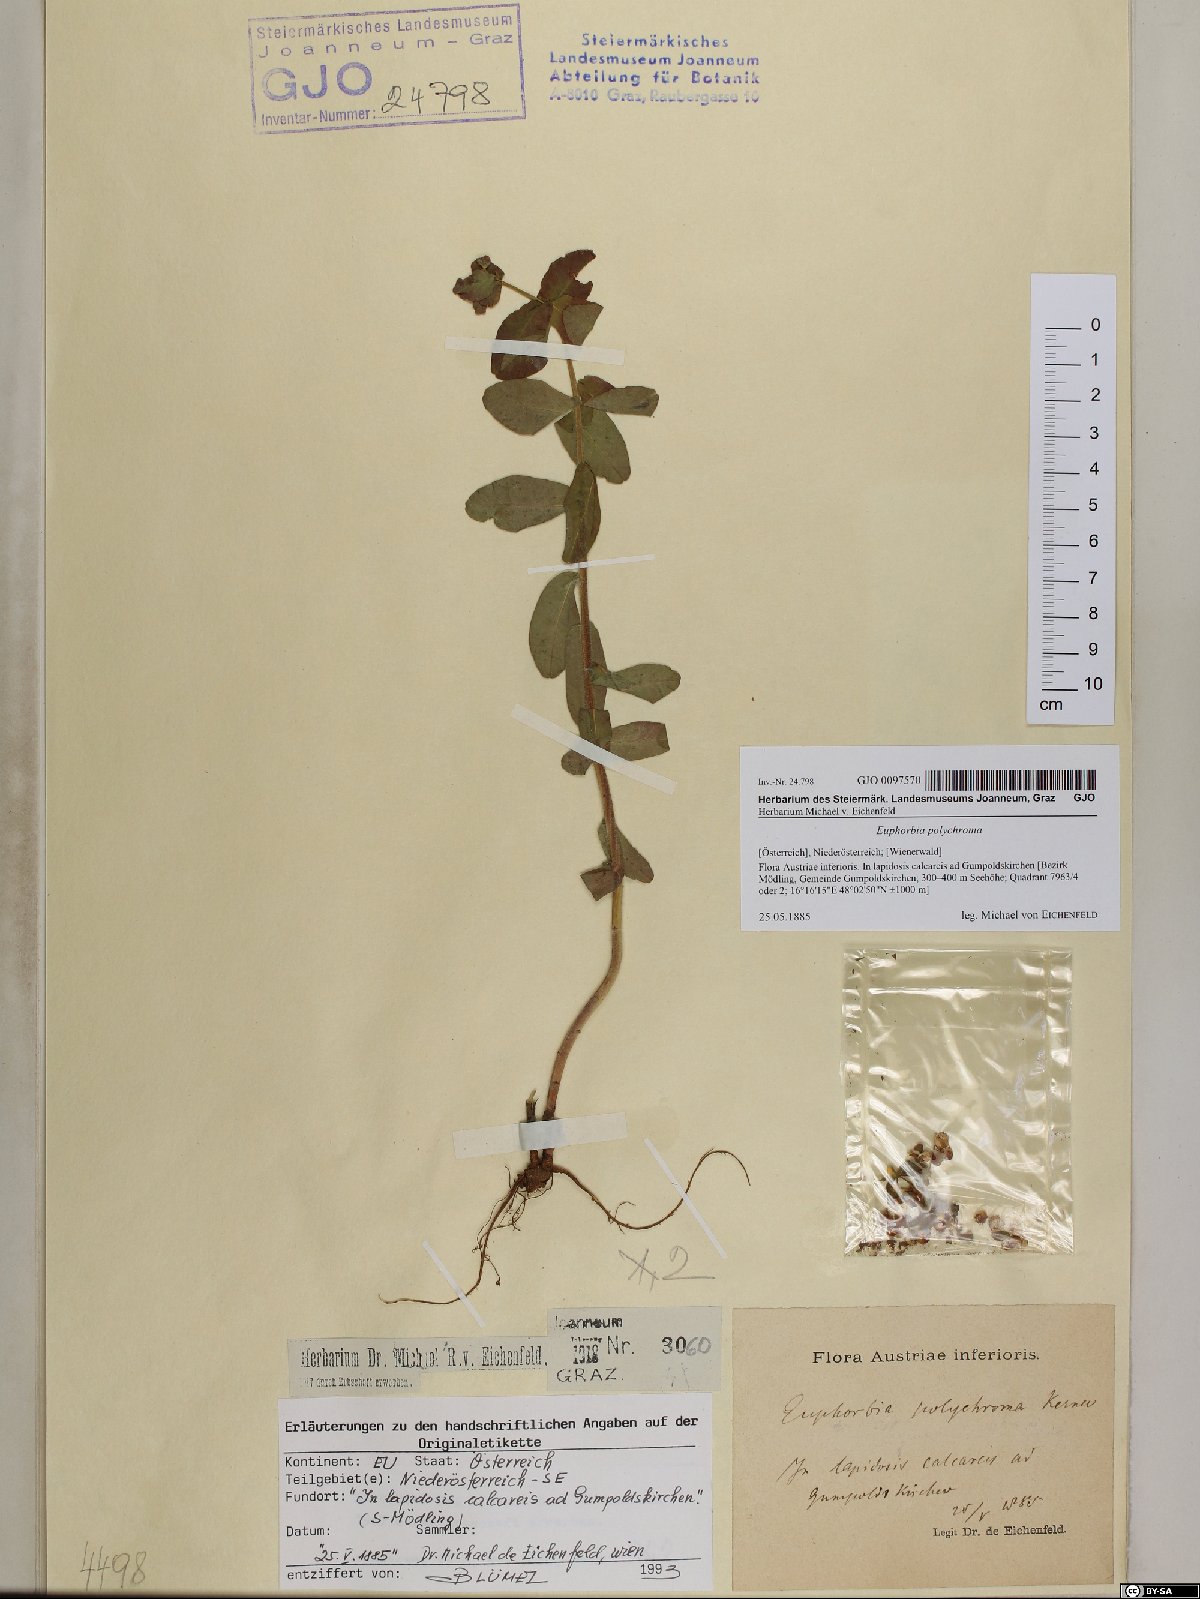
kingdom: Plantae
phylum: Tracheophyta
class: Magnoliopsida
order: Malpighiales
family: Euphorbiaceae
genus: Euphorbia
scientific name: Euphorbia epithymoides
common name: Cushion spurge
